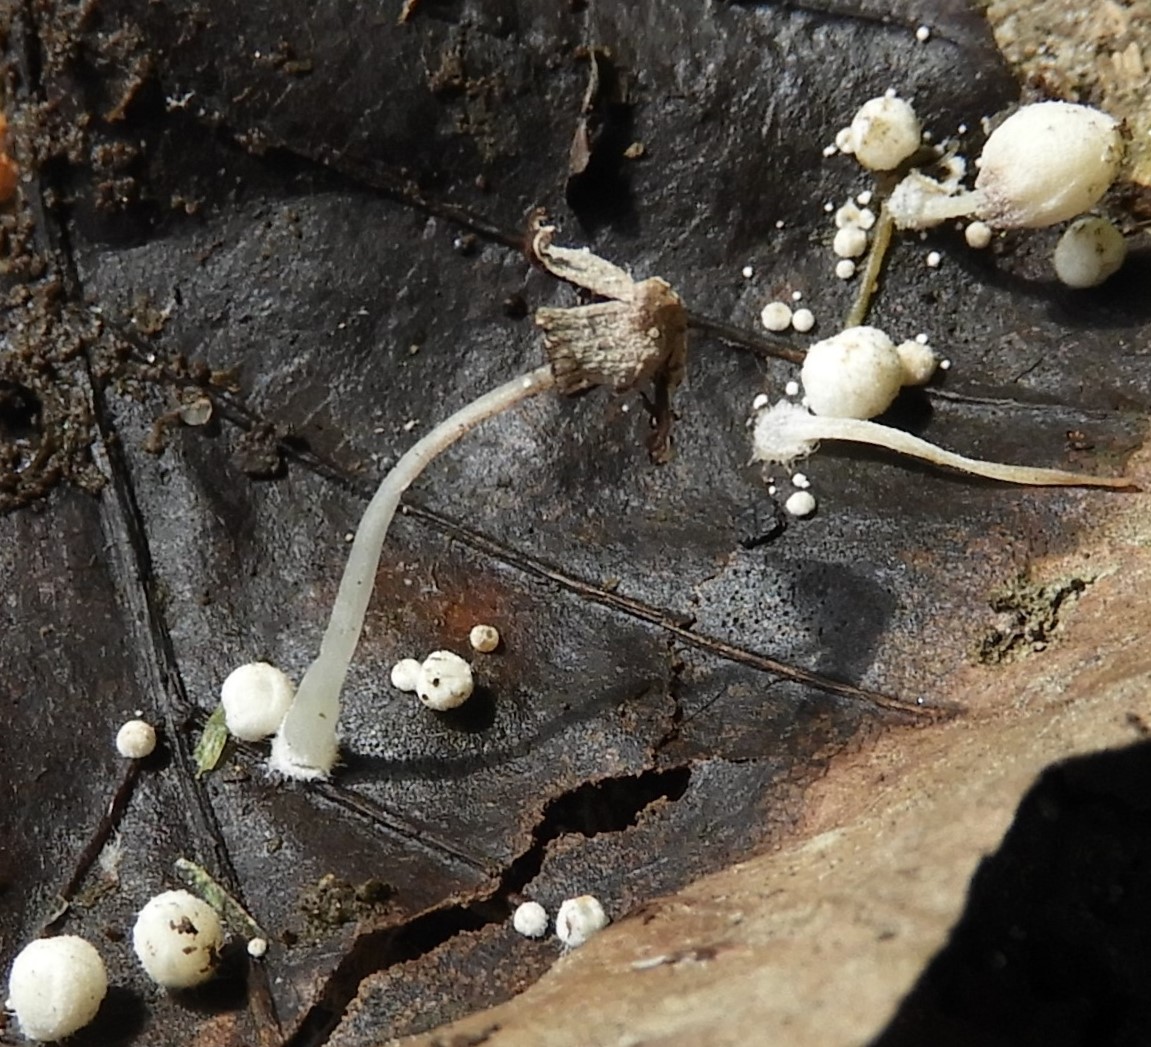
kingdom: Fungi
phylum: Basidiomycota
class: Agaricomycetes
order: Agaricales
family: Psathyrellaceae
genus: Coprinopsis
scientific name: Coprinopsis
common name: blækhat
